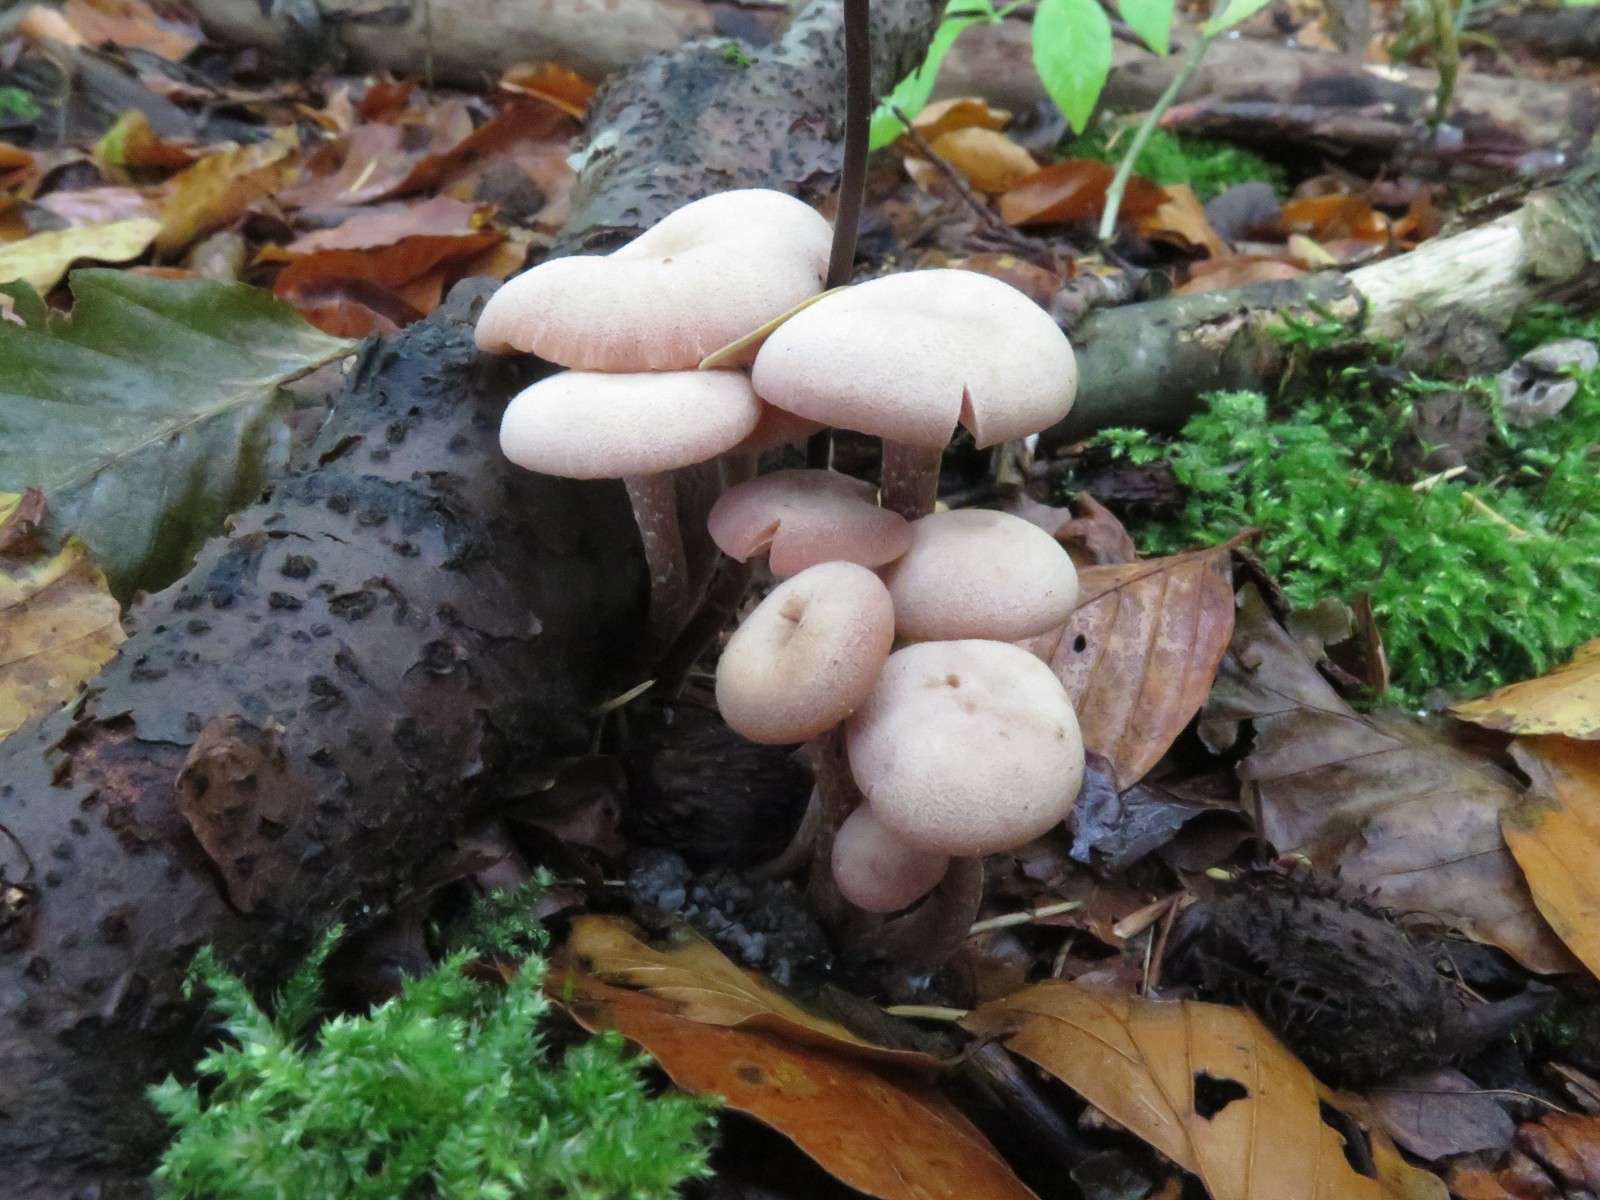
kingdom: Fungi
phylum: Basidiomycota
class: Agaricomycetes
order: Agaricales
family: Hydnangiaceae
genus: Laccaria
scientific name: Laccaria laccata
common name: rød ametysthat
